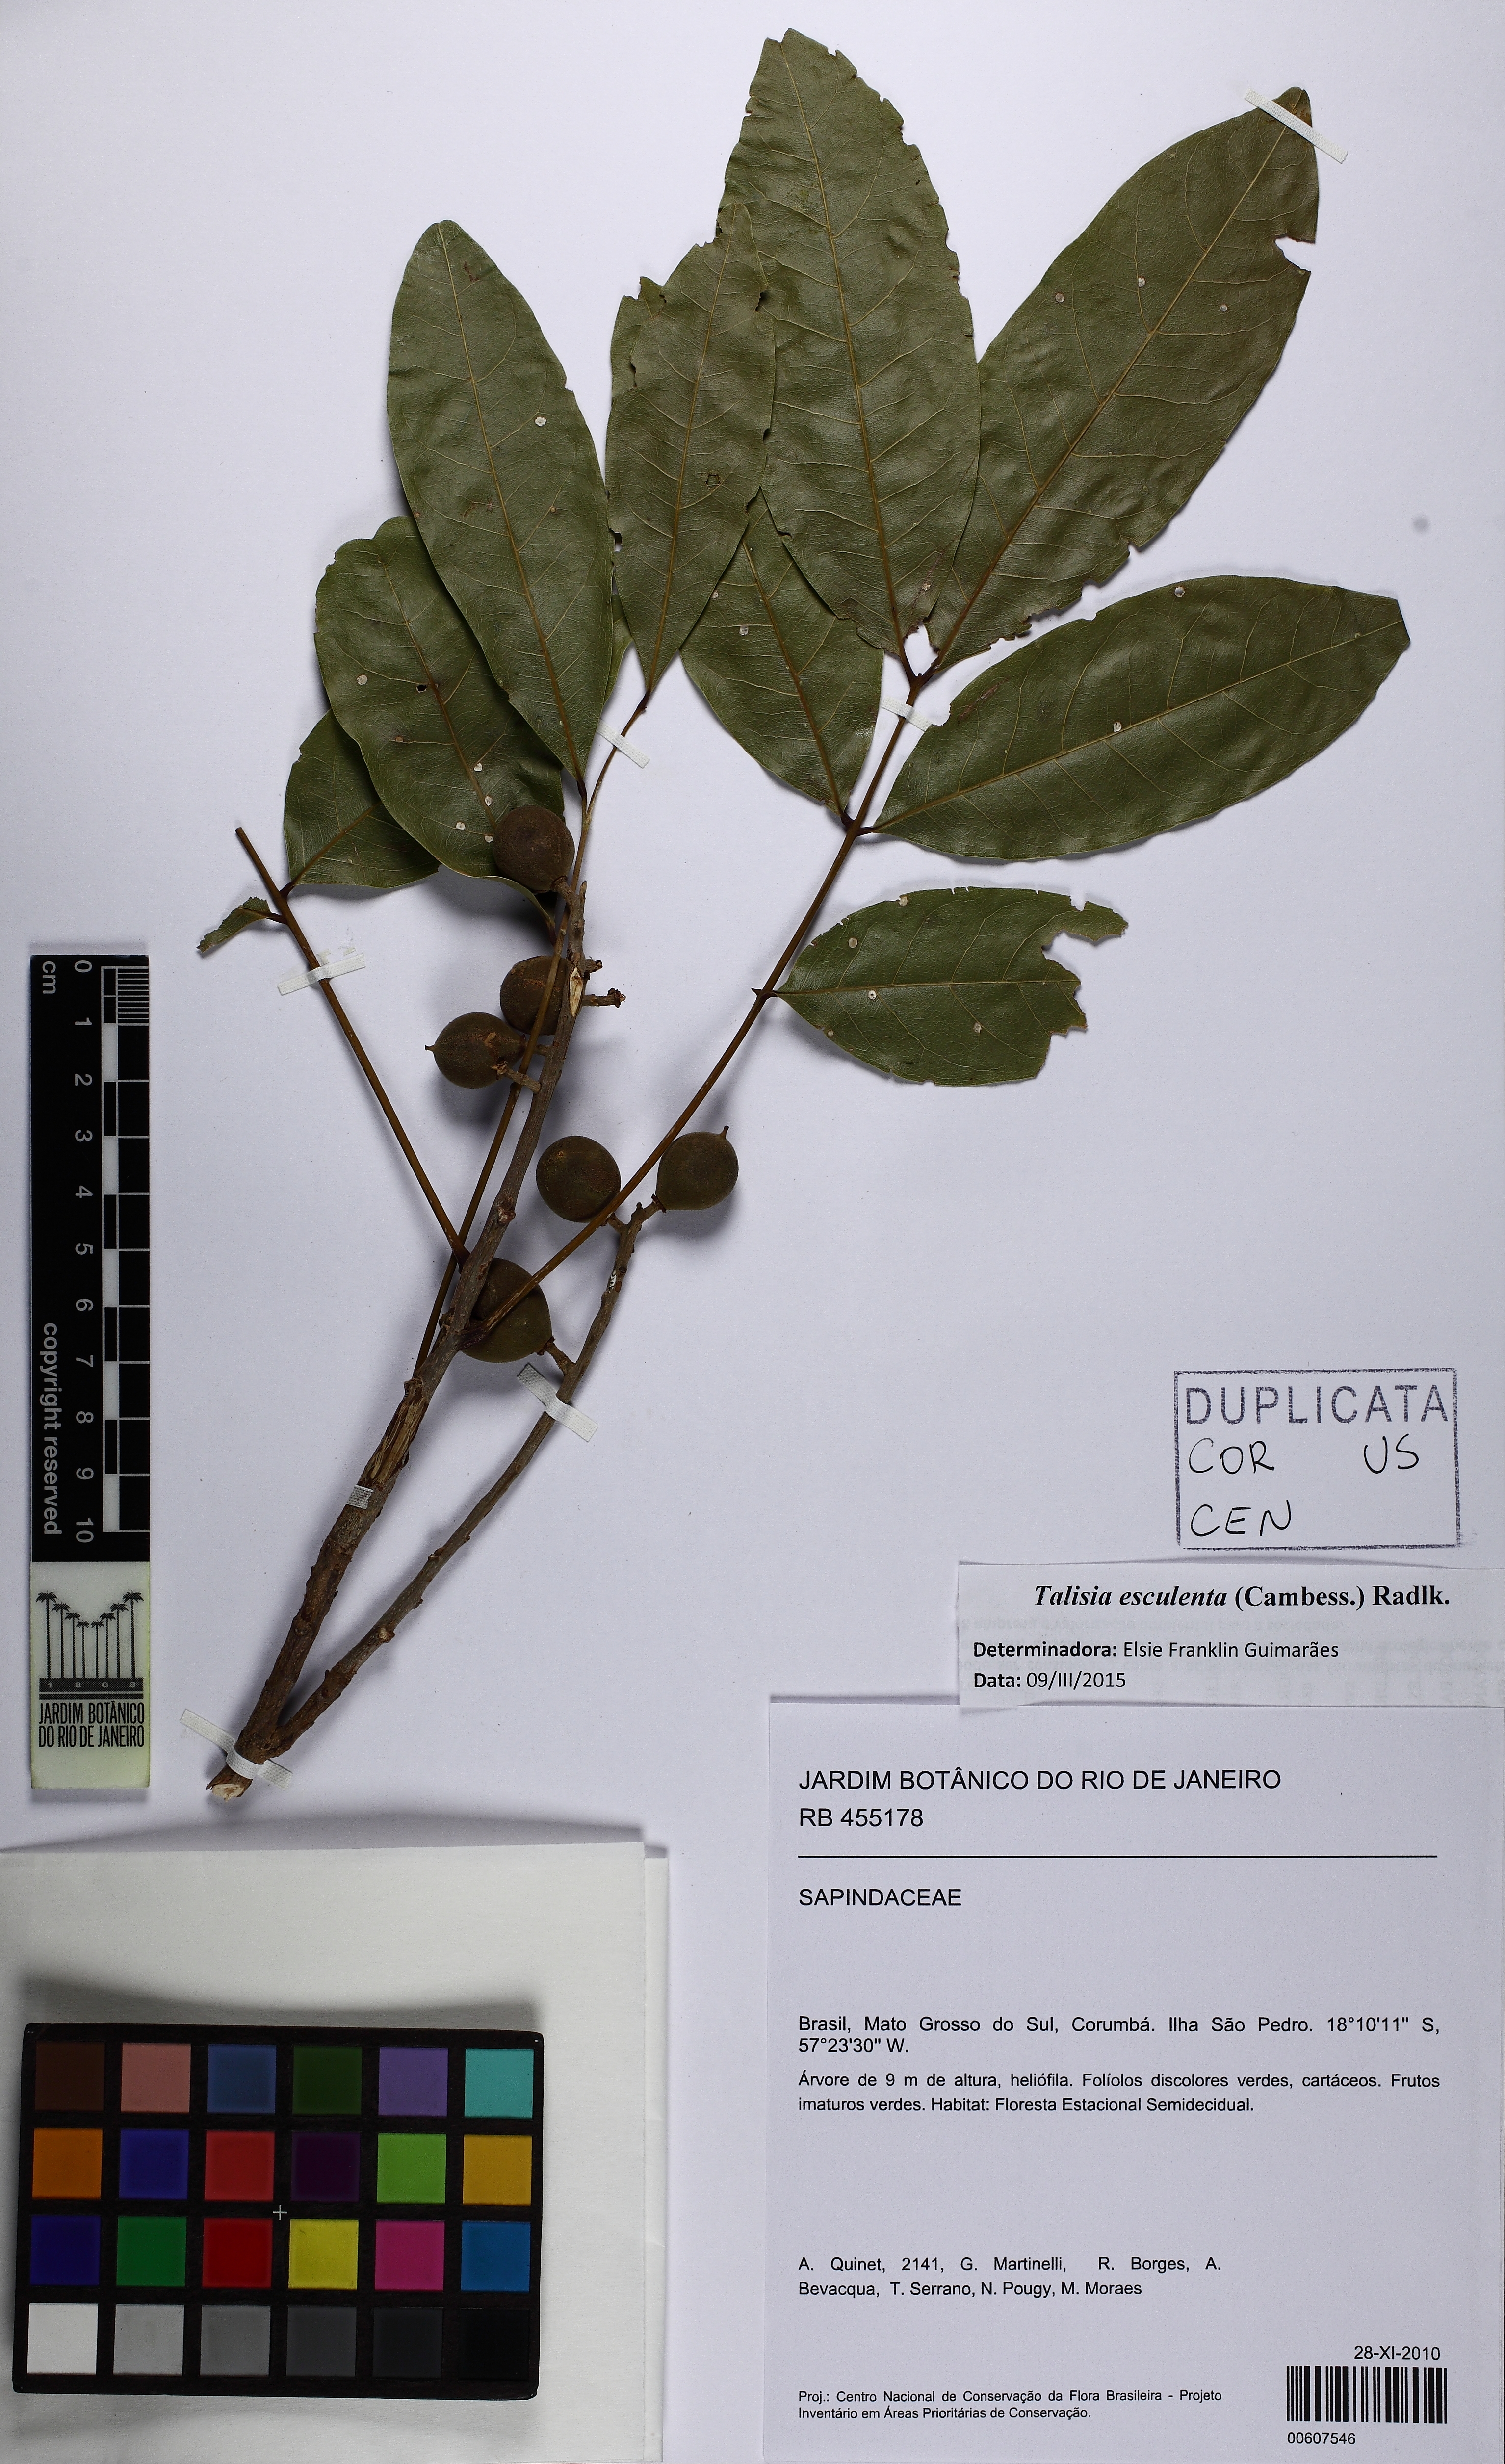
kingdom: Plantae
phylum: Tracheophyta
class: Magnoliopsida
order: Sapindales
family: Sapindaceae
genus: Talisia
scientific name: Talisia esculenta
